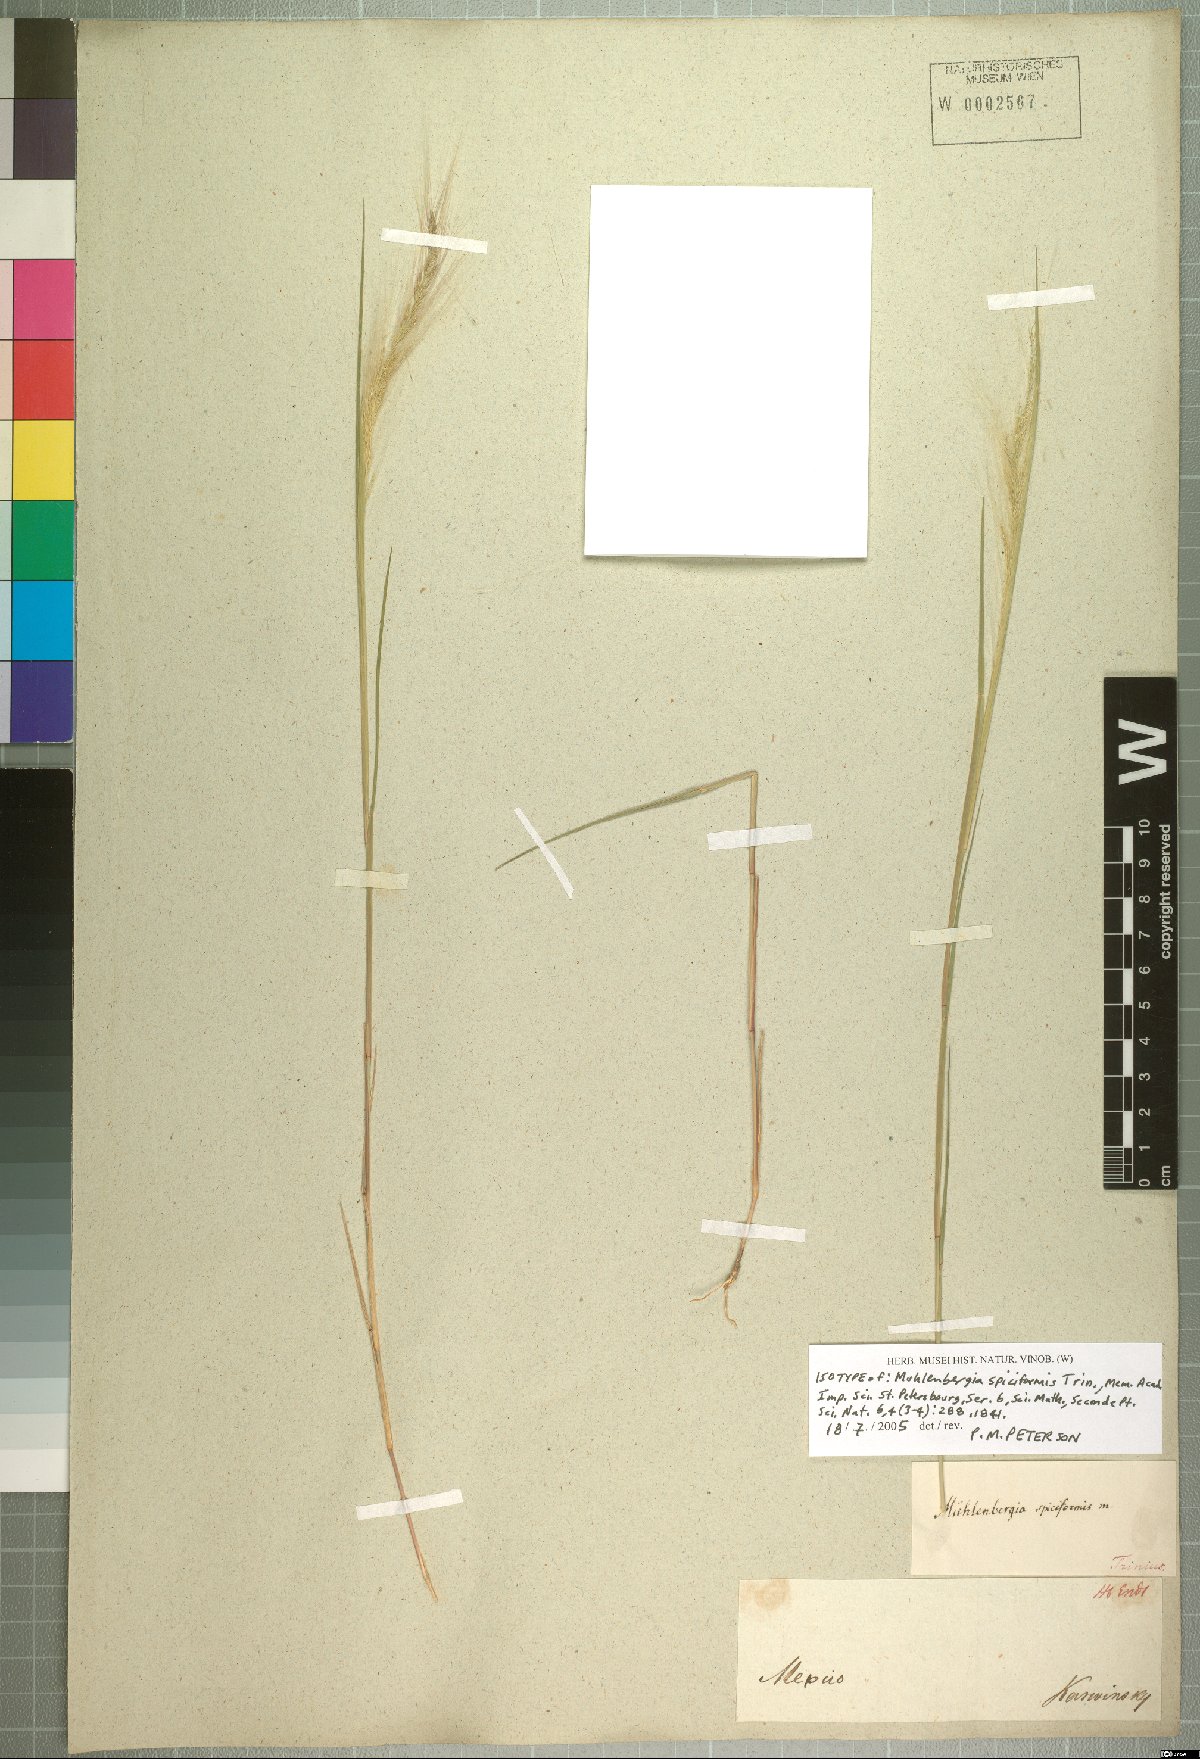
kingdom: Plantae
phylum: Tracheophyta
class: Liliopsida
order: Poales
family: Poaceae
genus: Muhlenbergia
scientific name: Muhlenbergia spiciformis
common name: Longawn muhly
